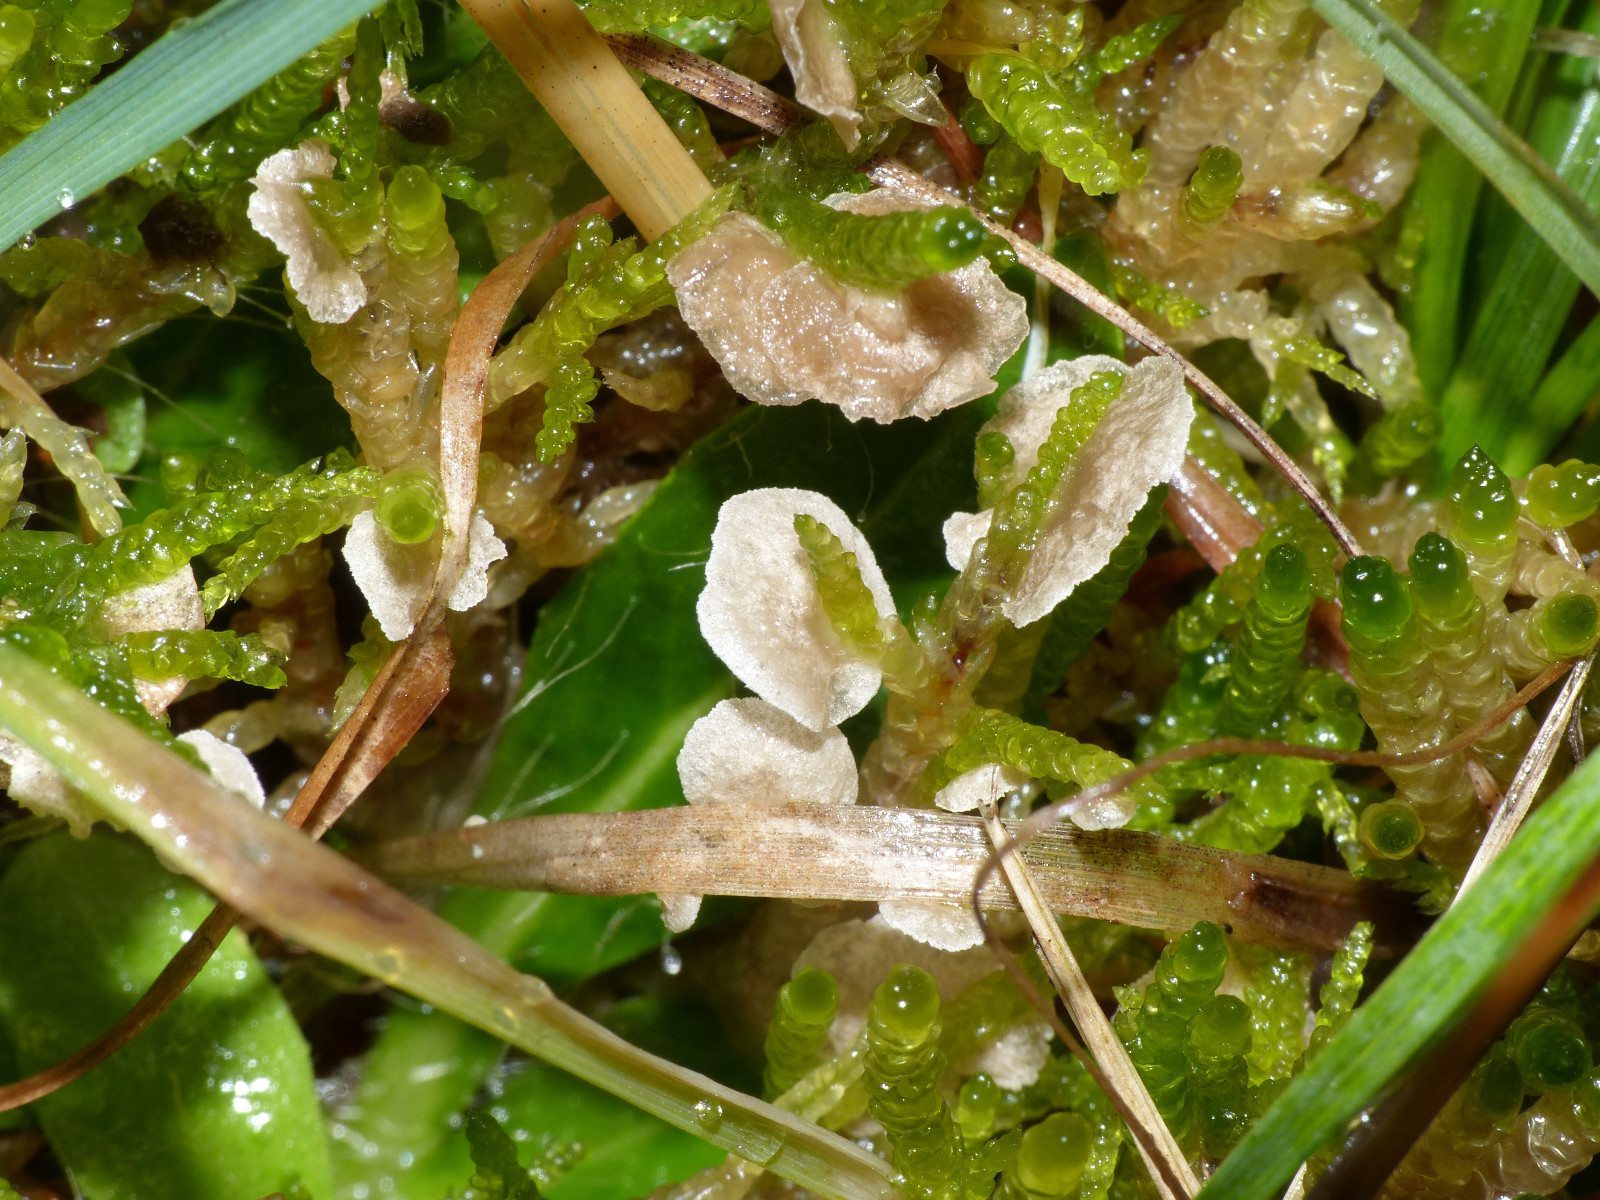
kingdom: Fungi
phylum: Basidiomycota
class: Agaricomycetes
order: Agaricales
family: Hygrophoraceae
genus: Arrhenia
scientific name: Arrhenia retiruga
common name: lille fontænehat
